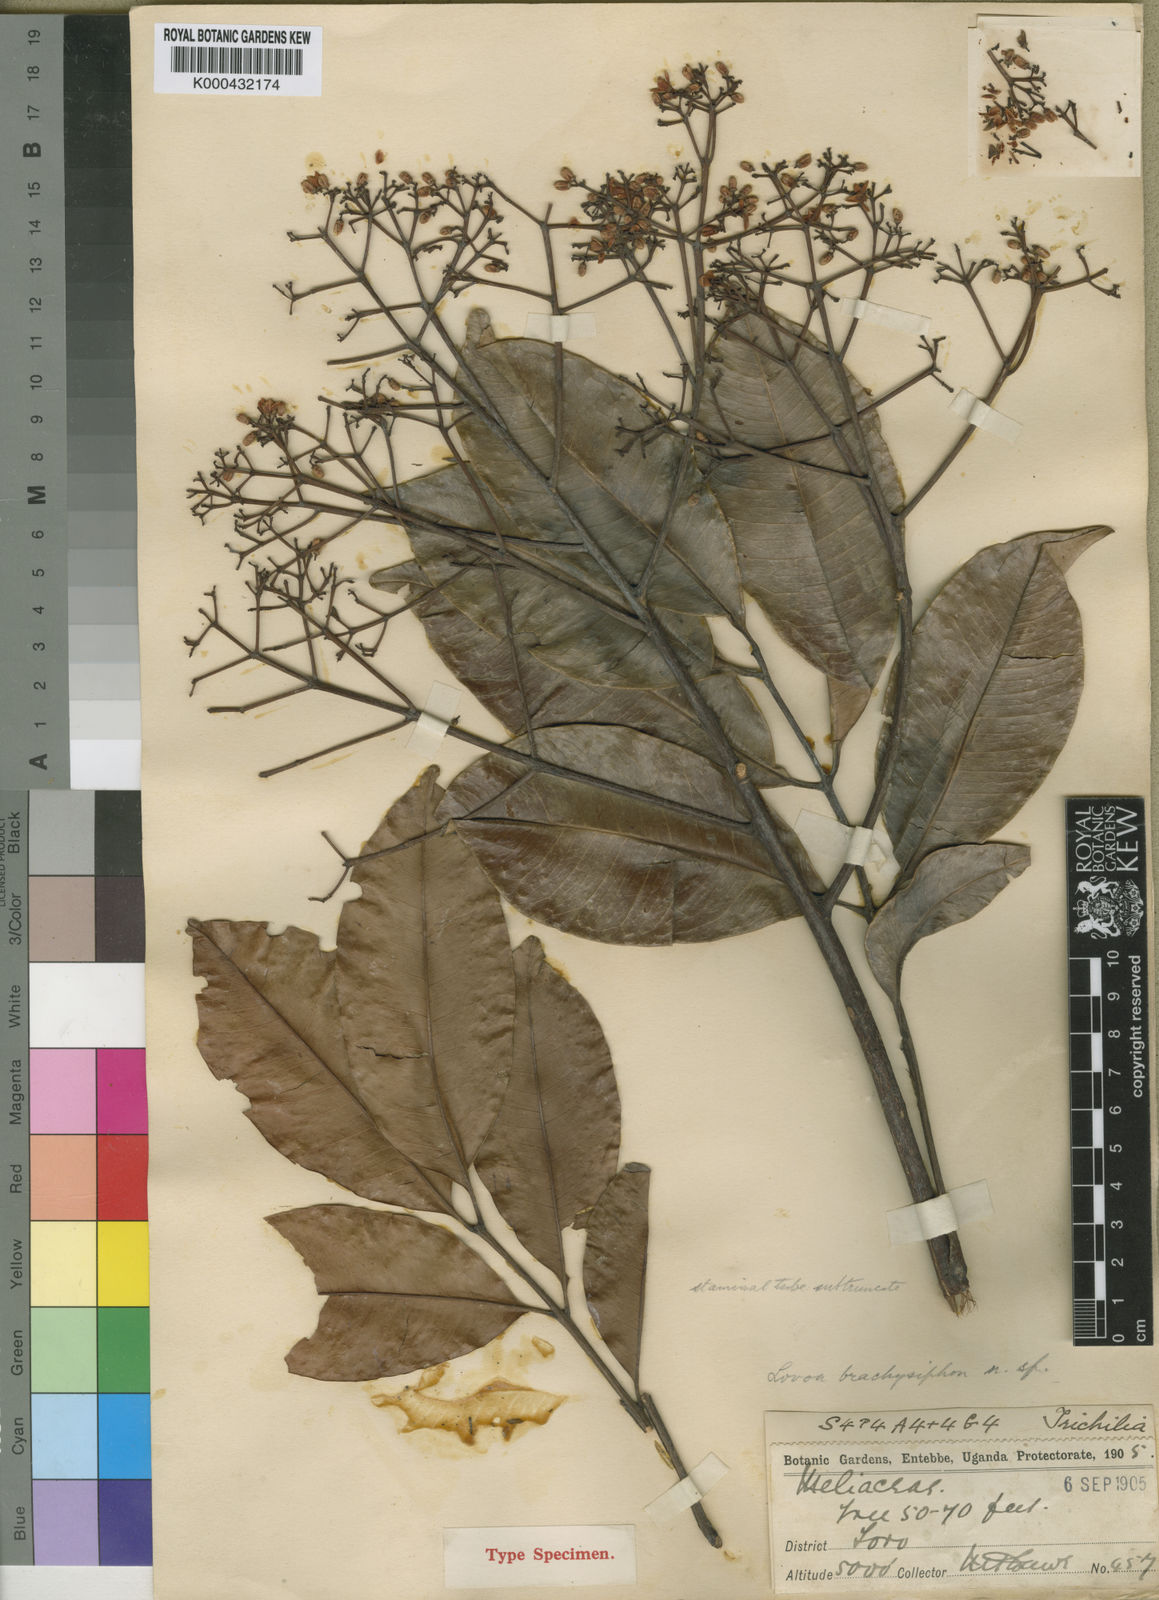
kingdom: Plantae
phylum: Tracheophyta
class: Magnoliopsida
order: Sapindales
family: Meliaceae
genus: Lovoa
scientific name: Lovoa trichilioides
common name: Congowood
